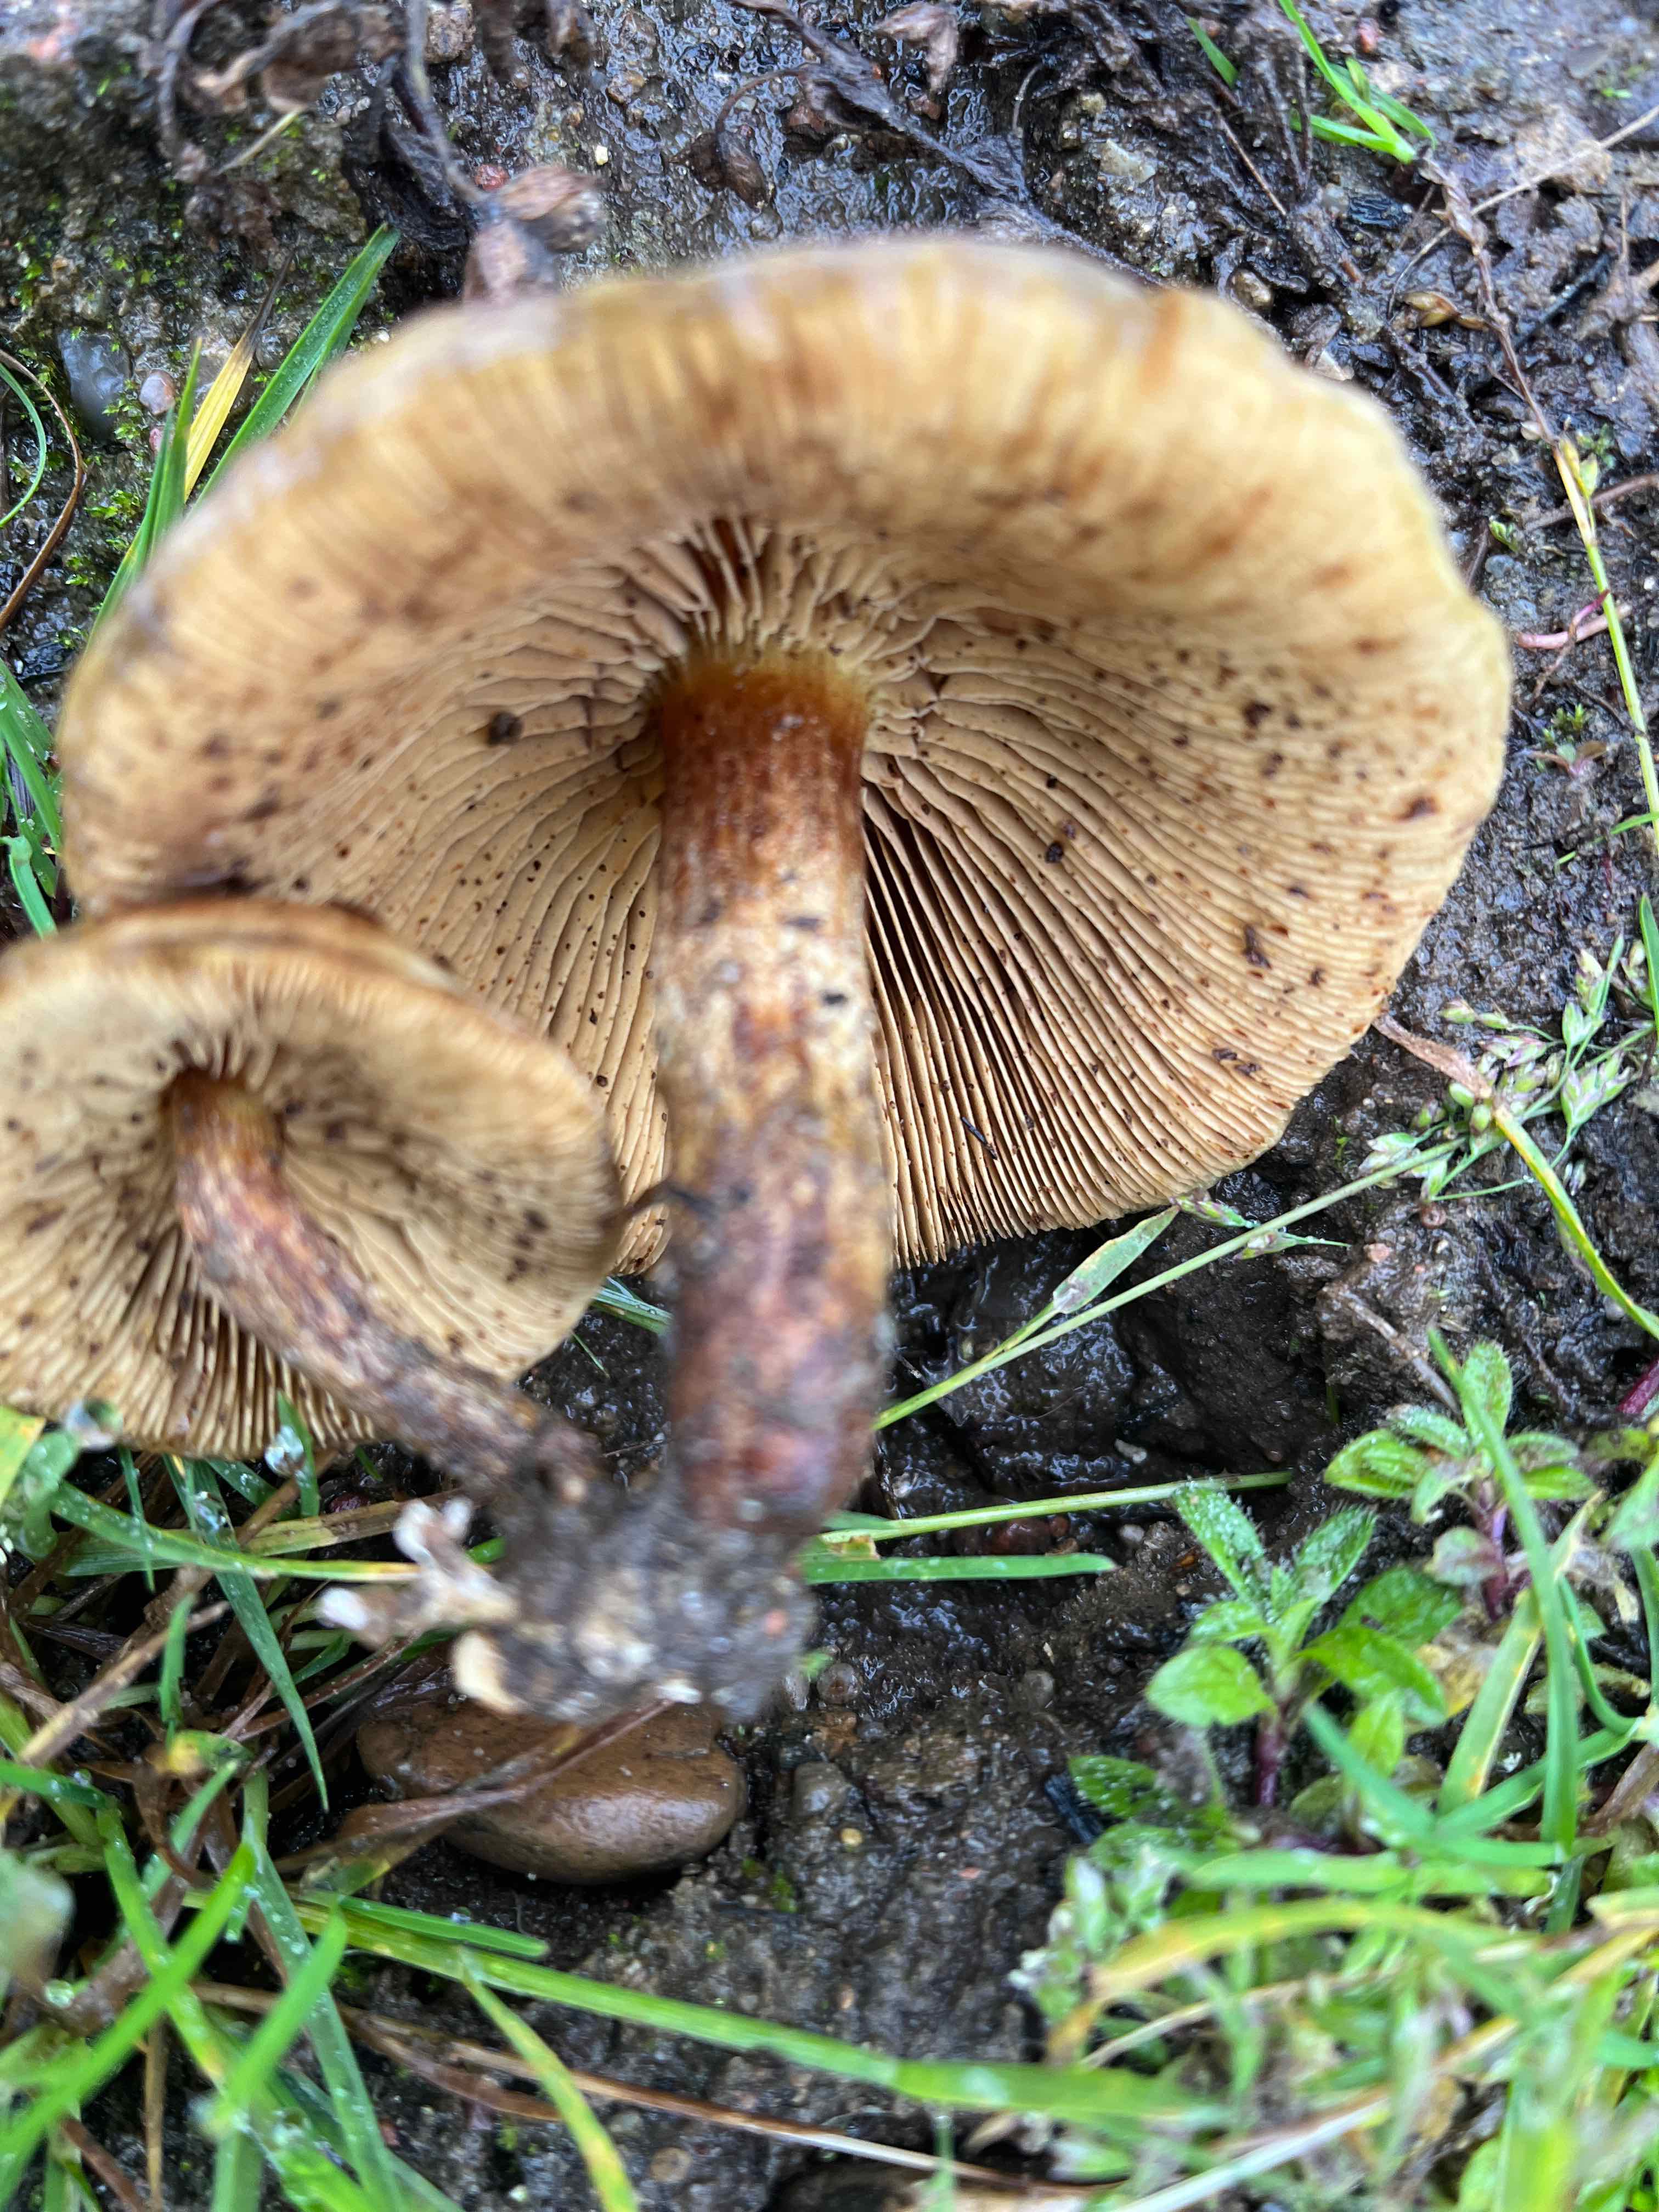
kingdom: Fungi
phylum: Basidiomycota
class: Agaricomycetes
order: Agaricales
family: Strophariaceae
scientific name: Strophariaceae
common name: bredbladfamilien
